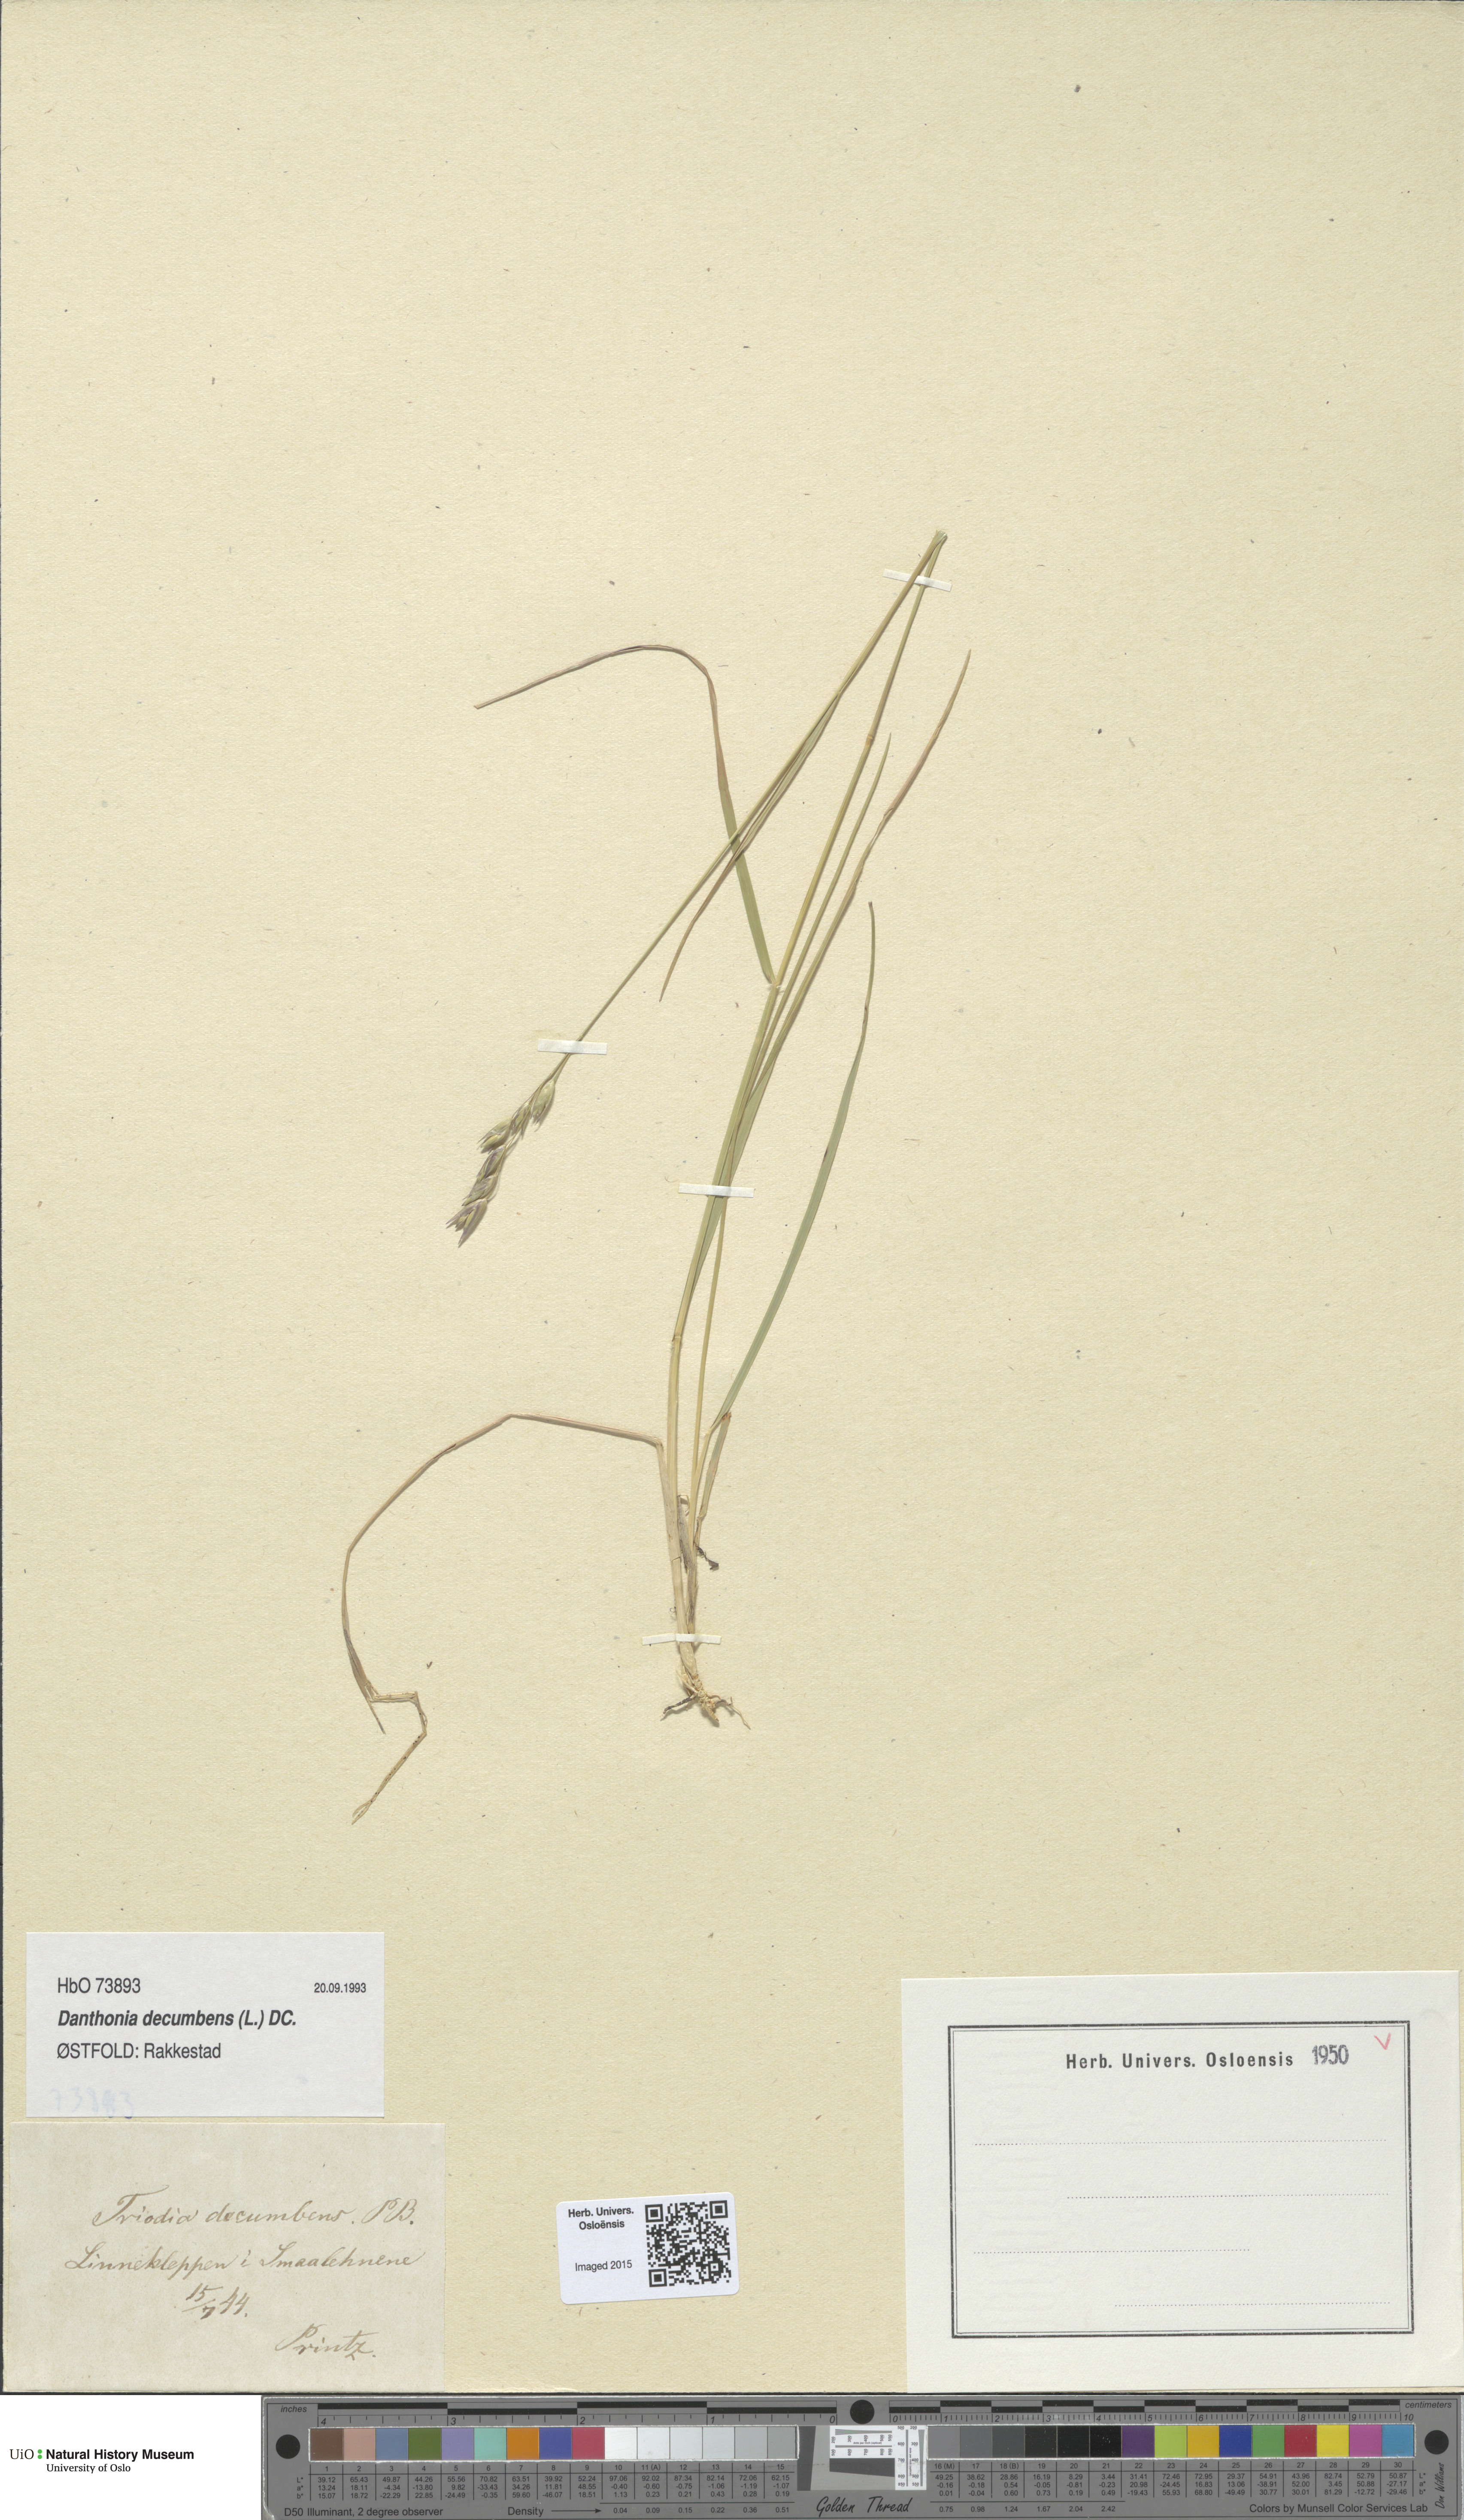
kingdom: Plantae
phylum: Tracheophyta
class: Liliopsida
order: Poales
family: Poaceae
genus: Danthonia
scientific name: Danthonia decumbens
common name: Common heathgrass
